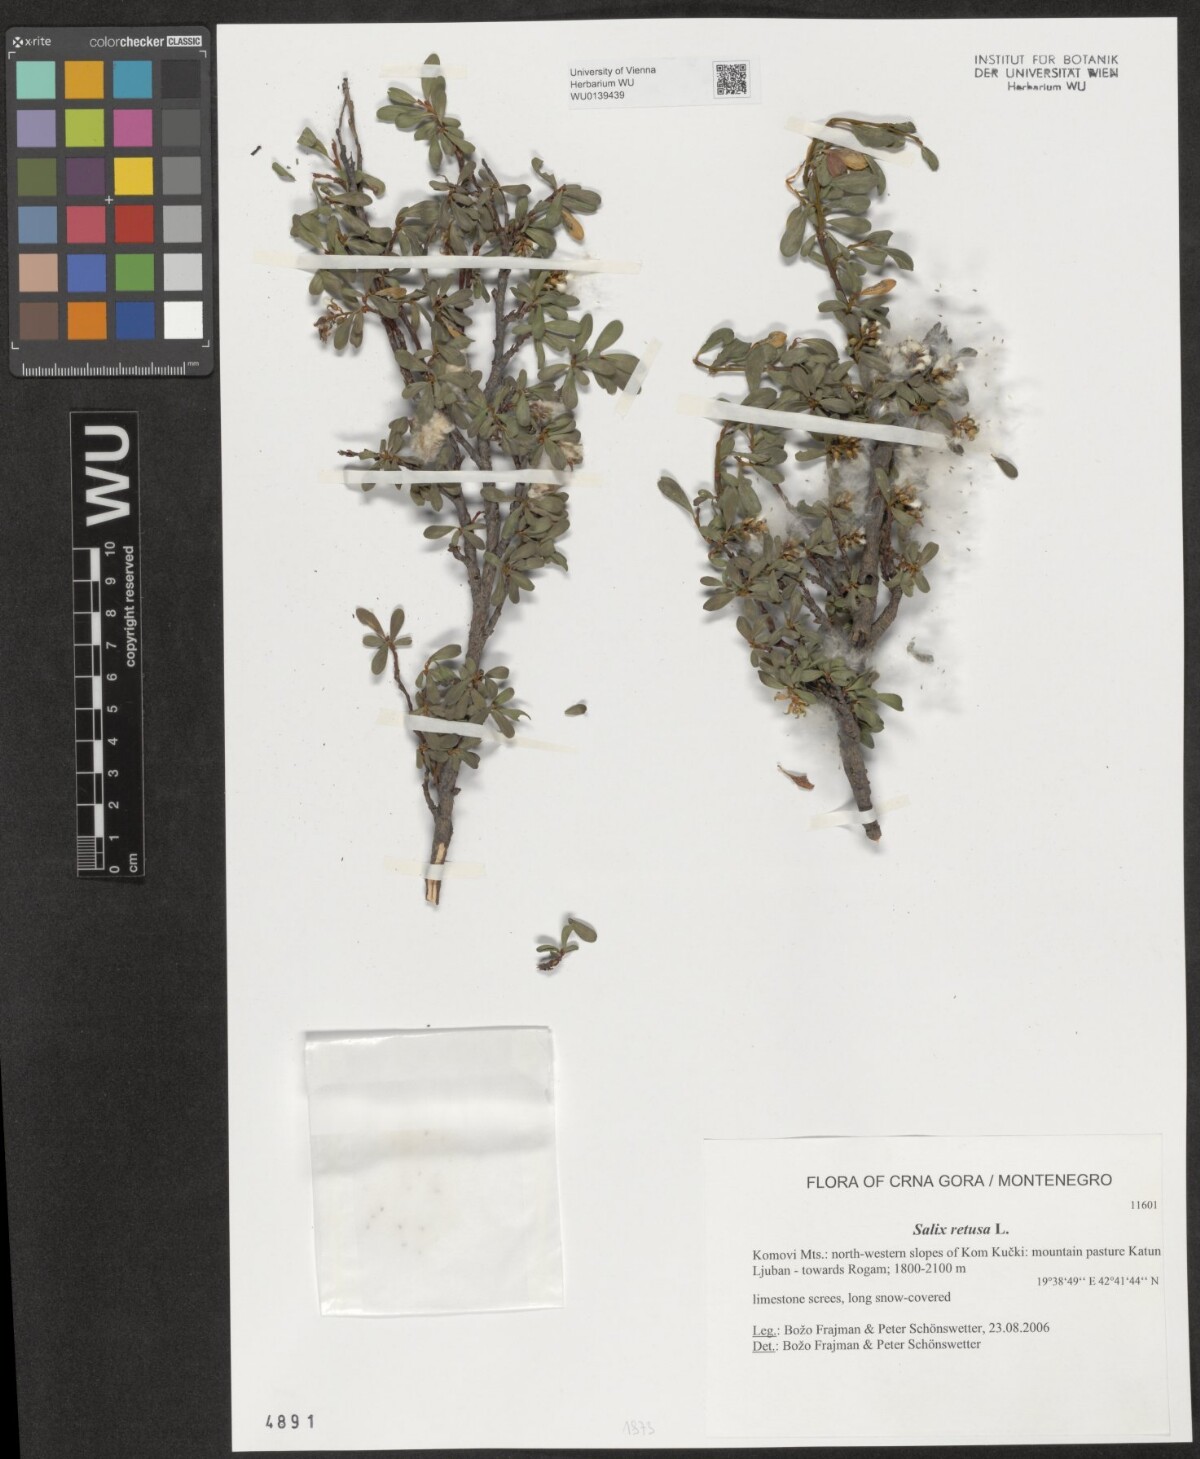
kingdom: Plantae
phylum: Tracheophyta
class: Magnoliopsida
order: Malpighiales
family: Salicaceae
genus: Salix
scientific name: Salix retusa
